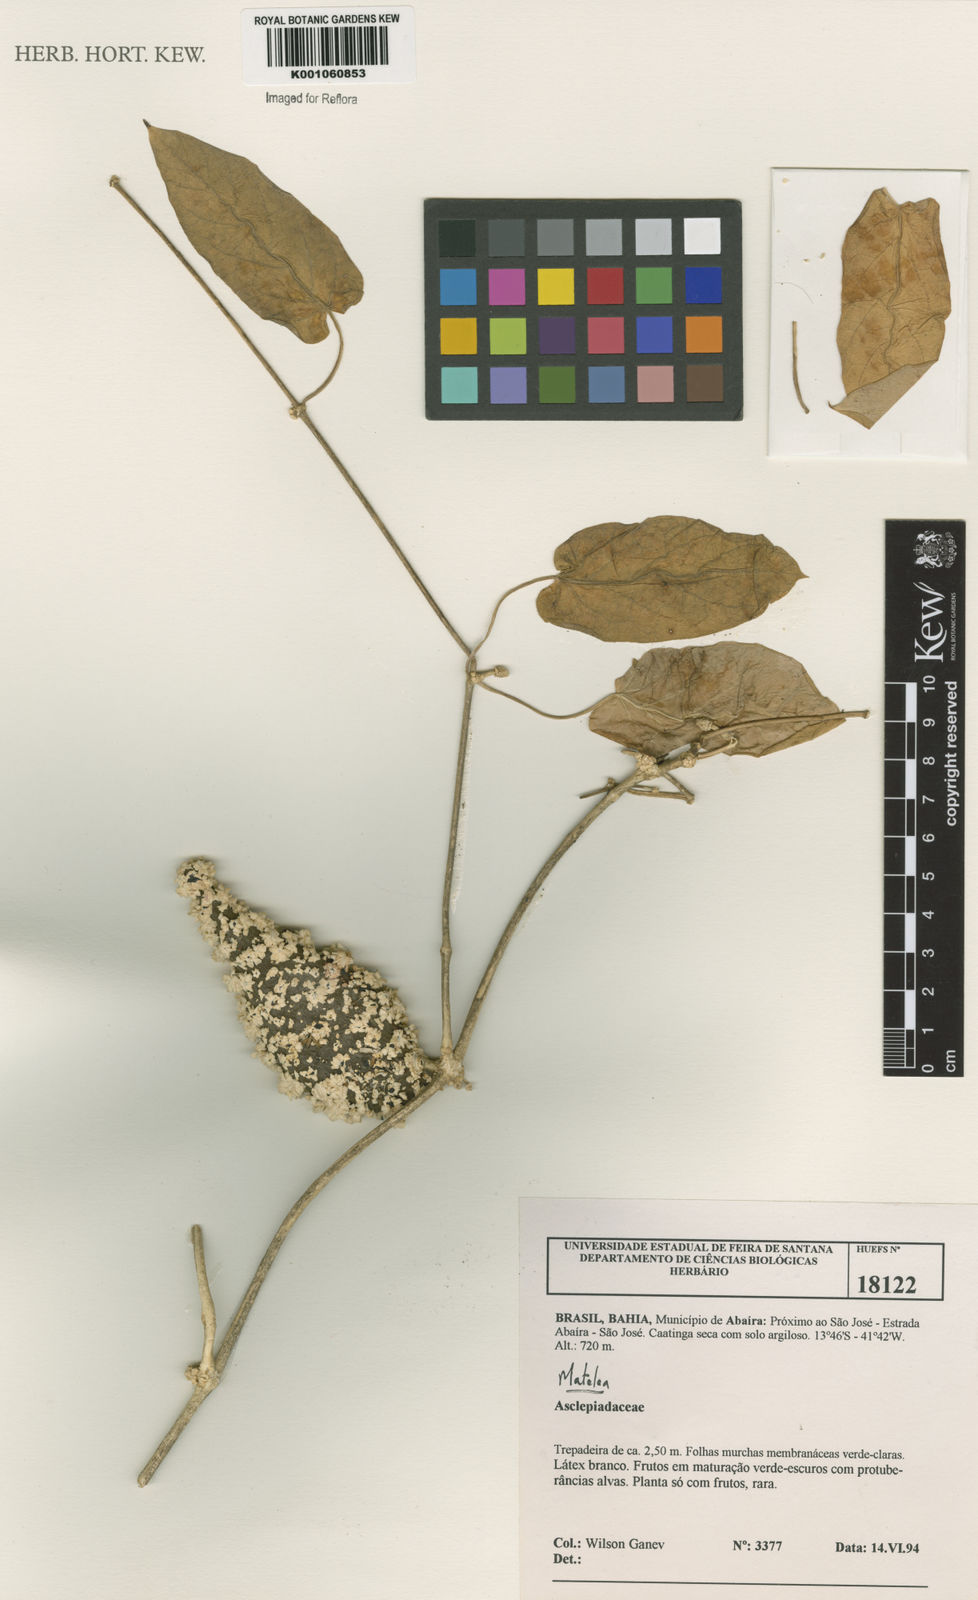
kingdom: Plantae
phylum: Tracheophyta
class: Magnoliopsida
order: Gentianales
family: Apocynaceae
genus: Matelea
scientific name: Matelea
